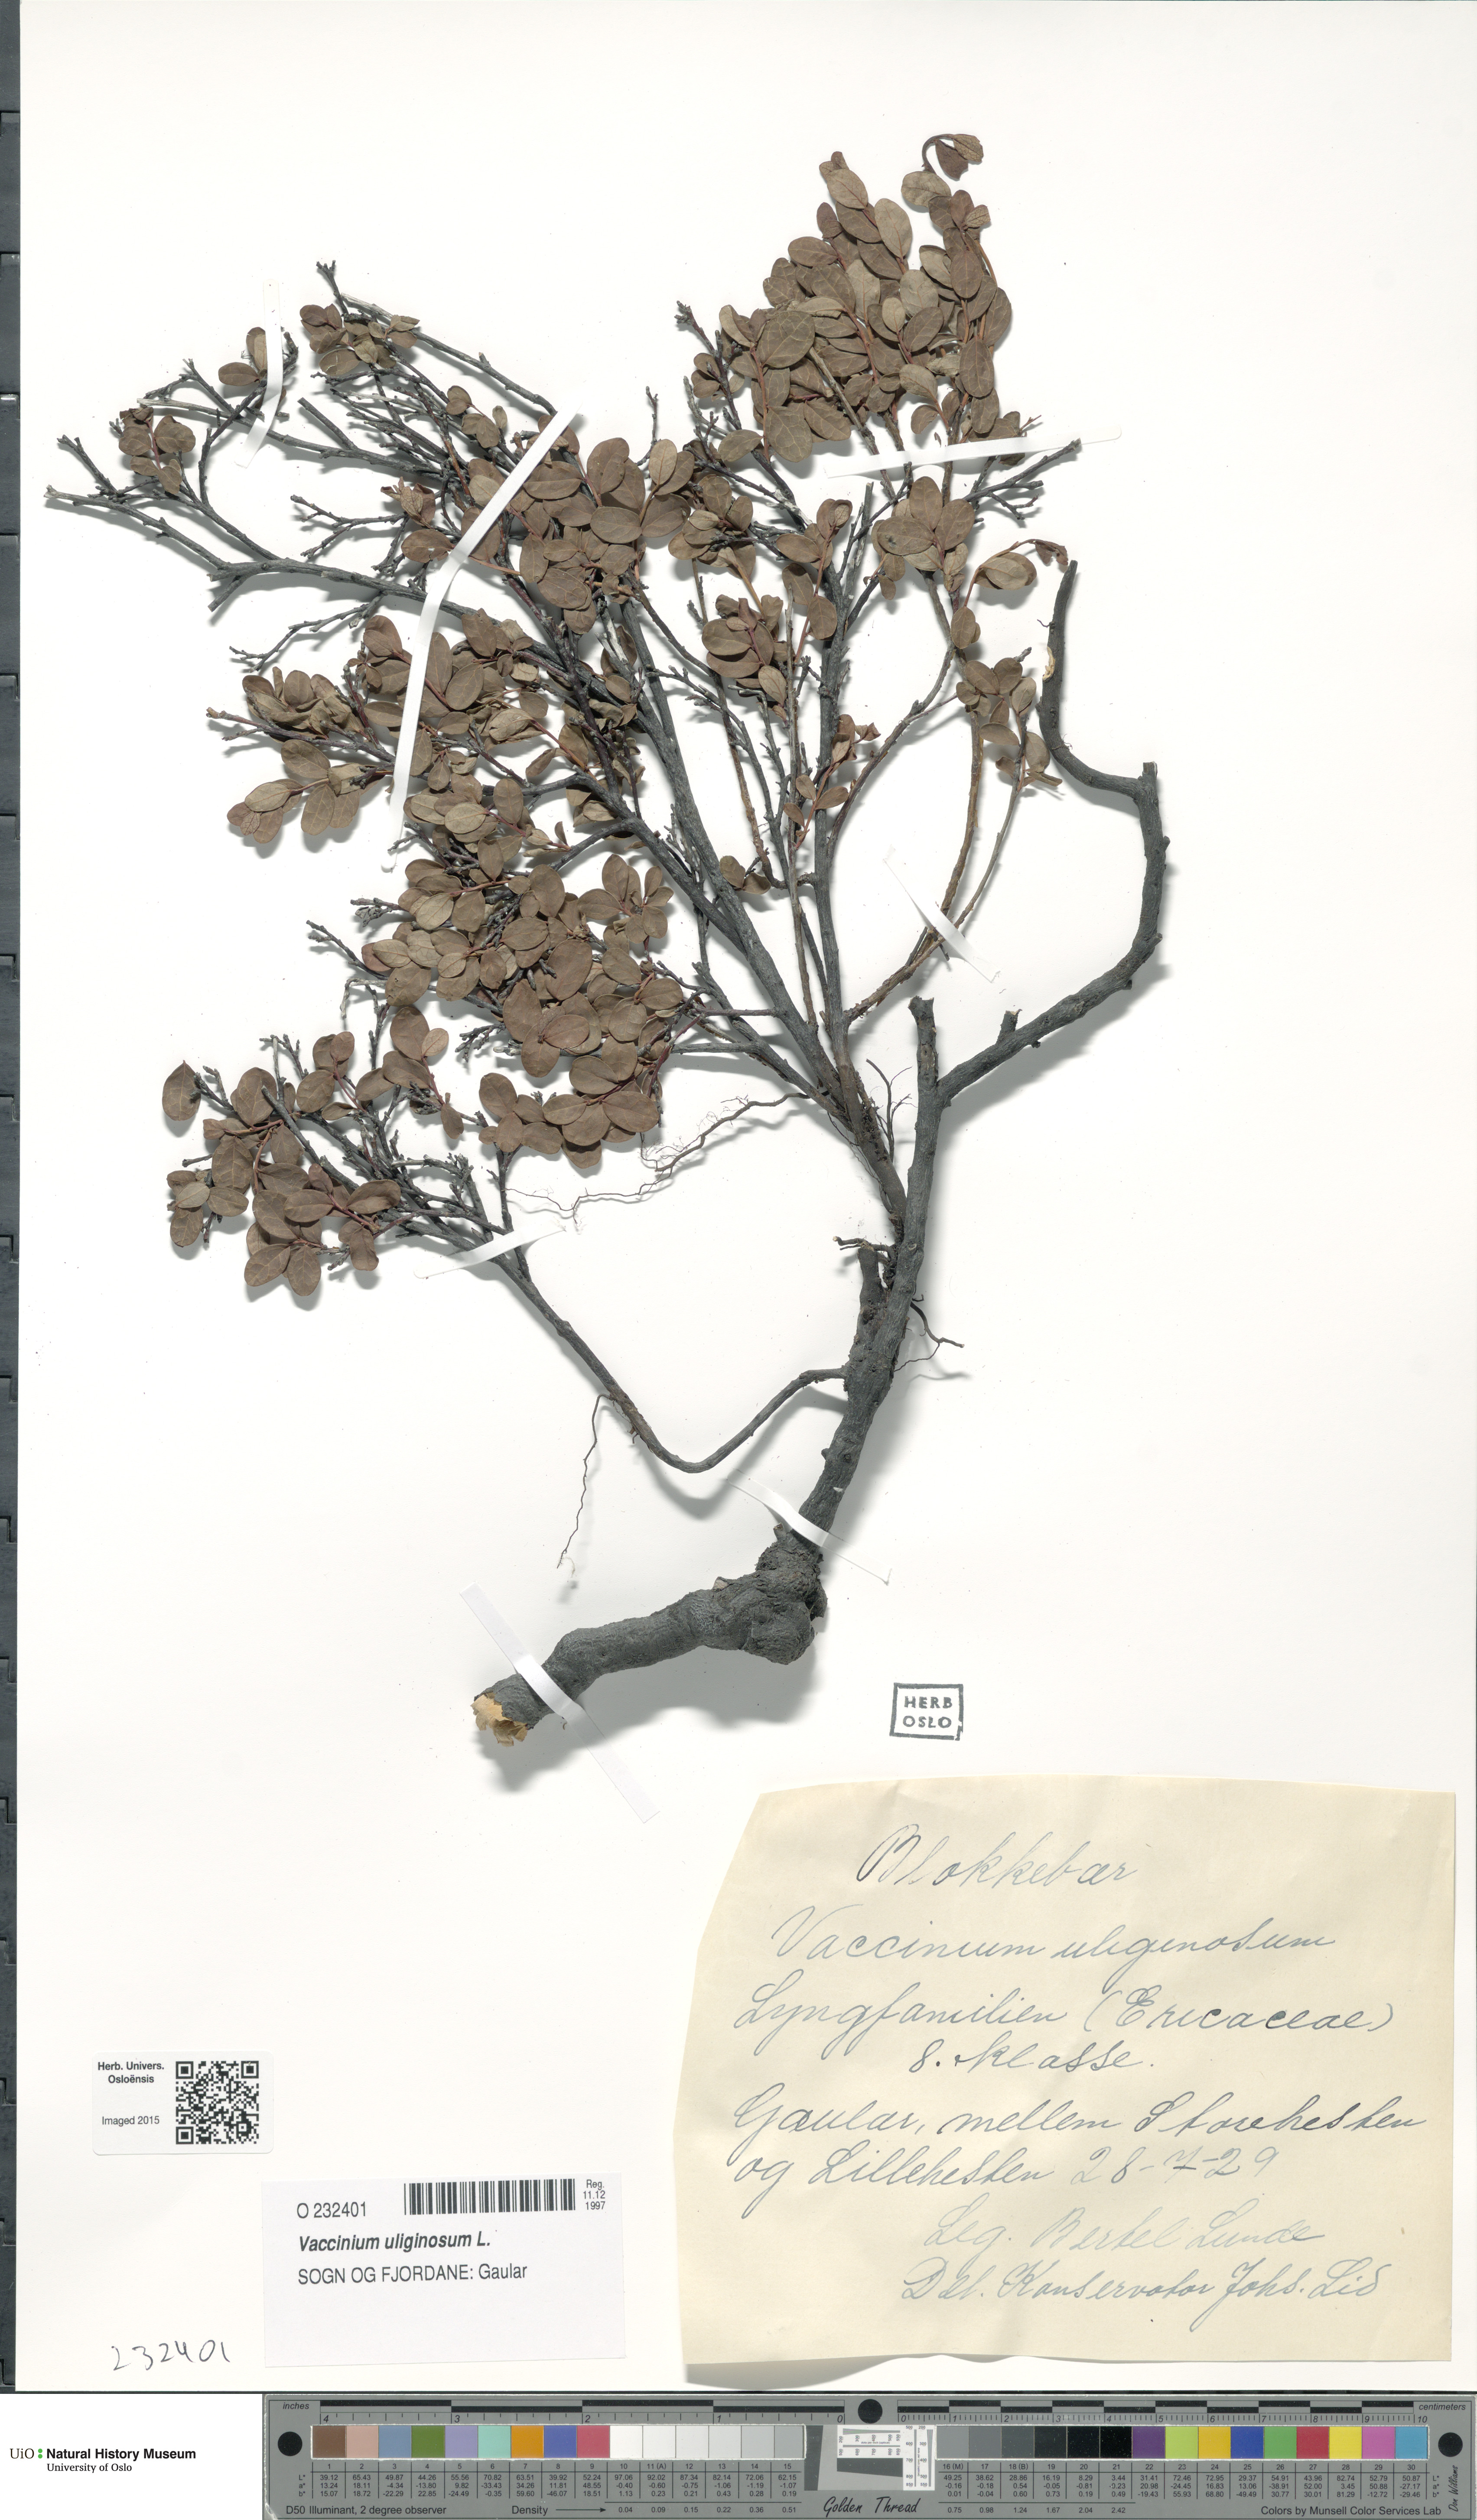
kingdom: Plantae
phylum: Tracheophyta
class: Magnoliopsida
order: Ericales
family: Ericaceae
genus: Vaccinium
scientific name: Vaccinium uliginosum
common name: Bog bilberry
